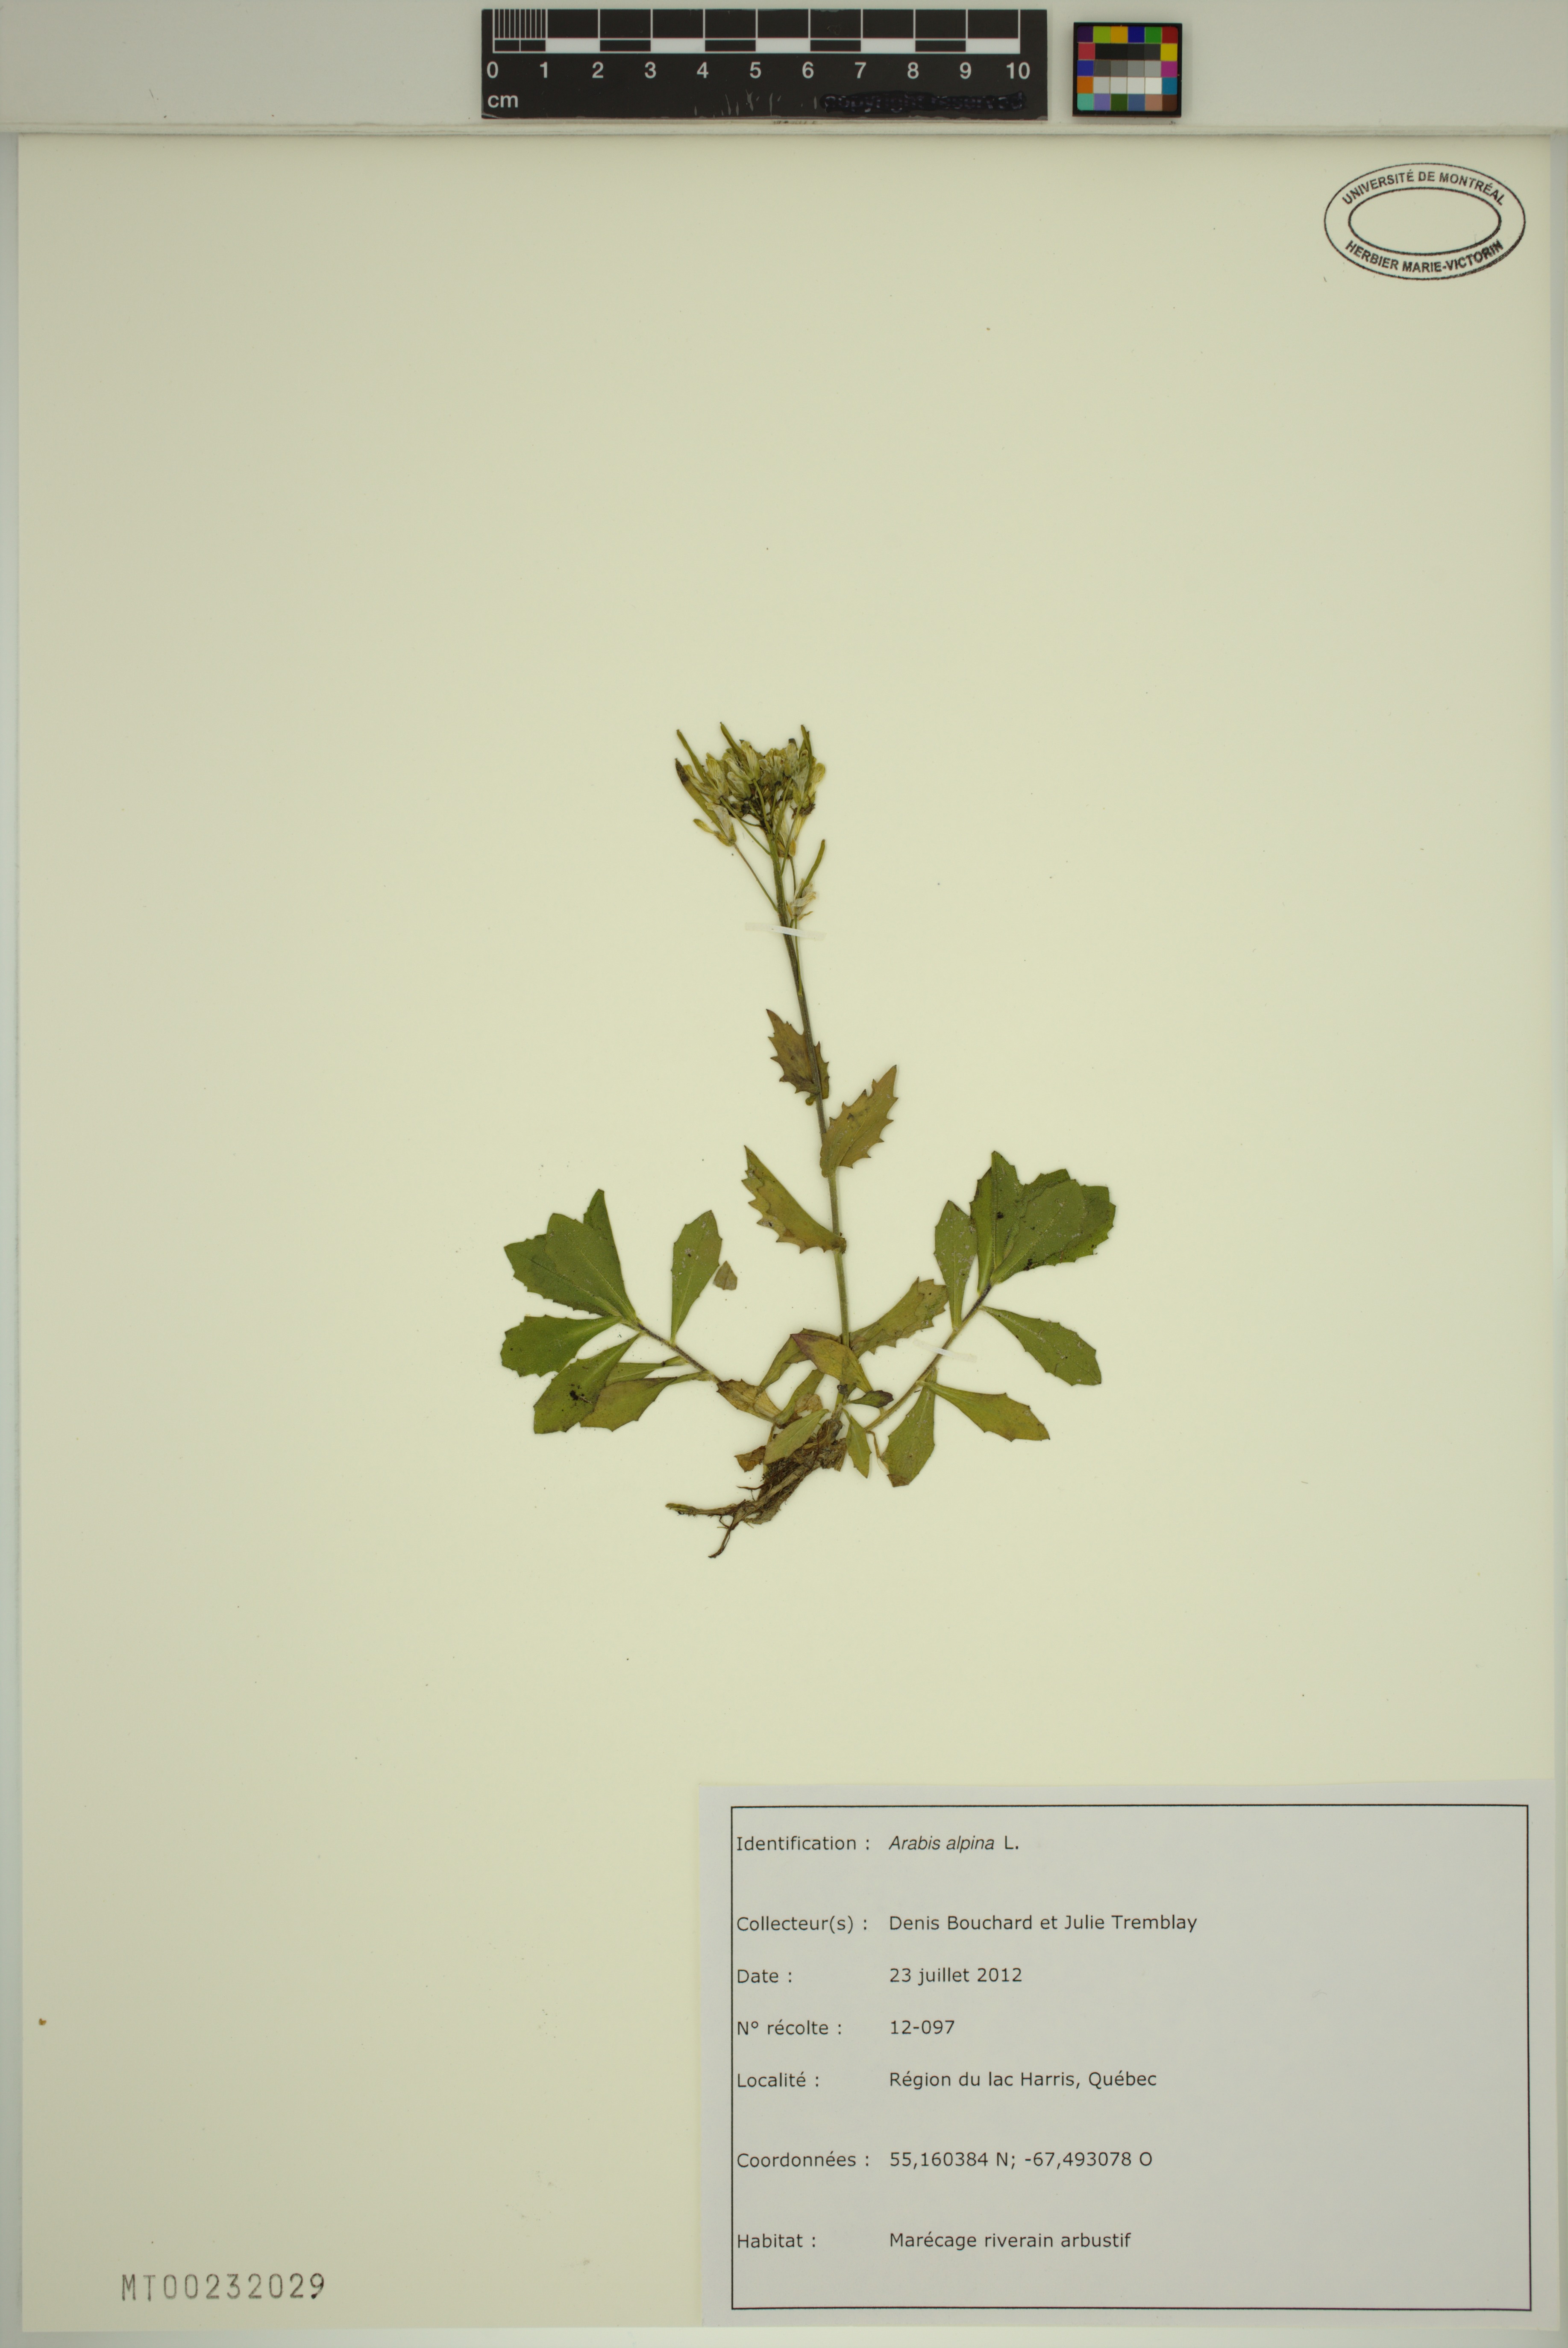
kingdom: Plantae
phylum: Tracheophyta
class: Magnoliopsida
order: Brassicales
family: Brassicaceae
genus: Arabis
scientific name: Arabis alpina
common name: Alpine rock-cress
